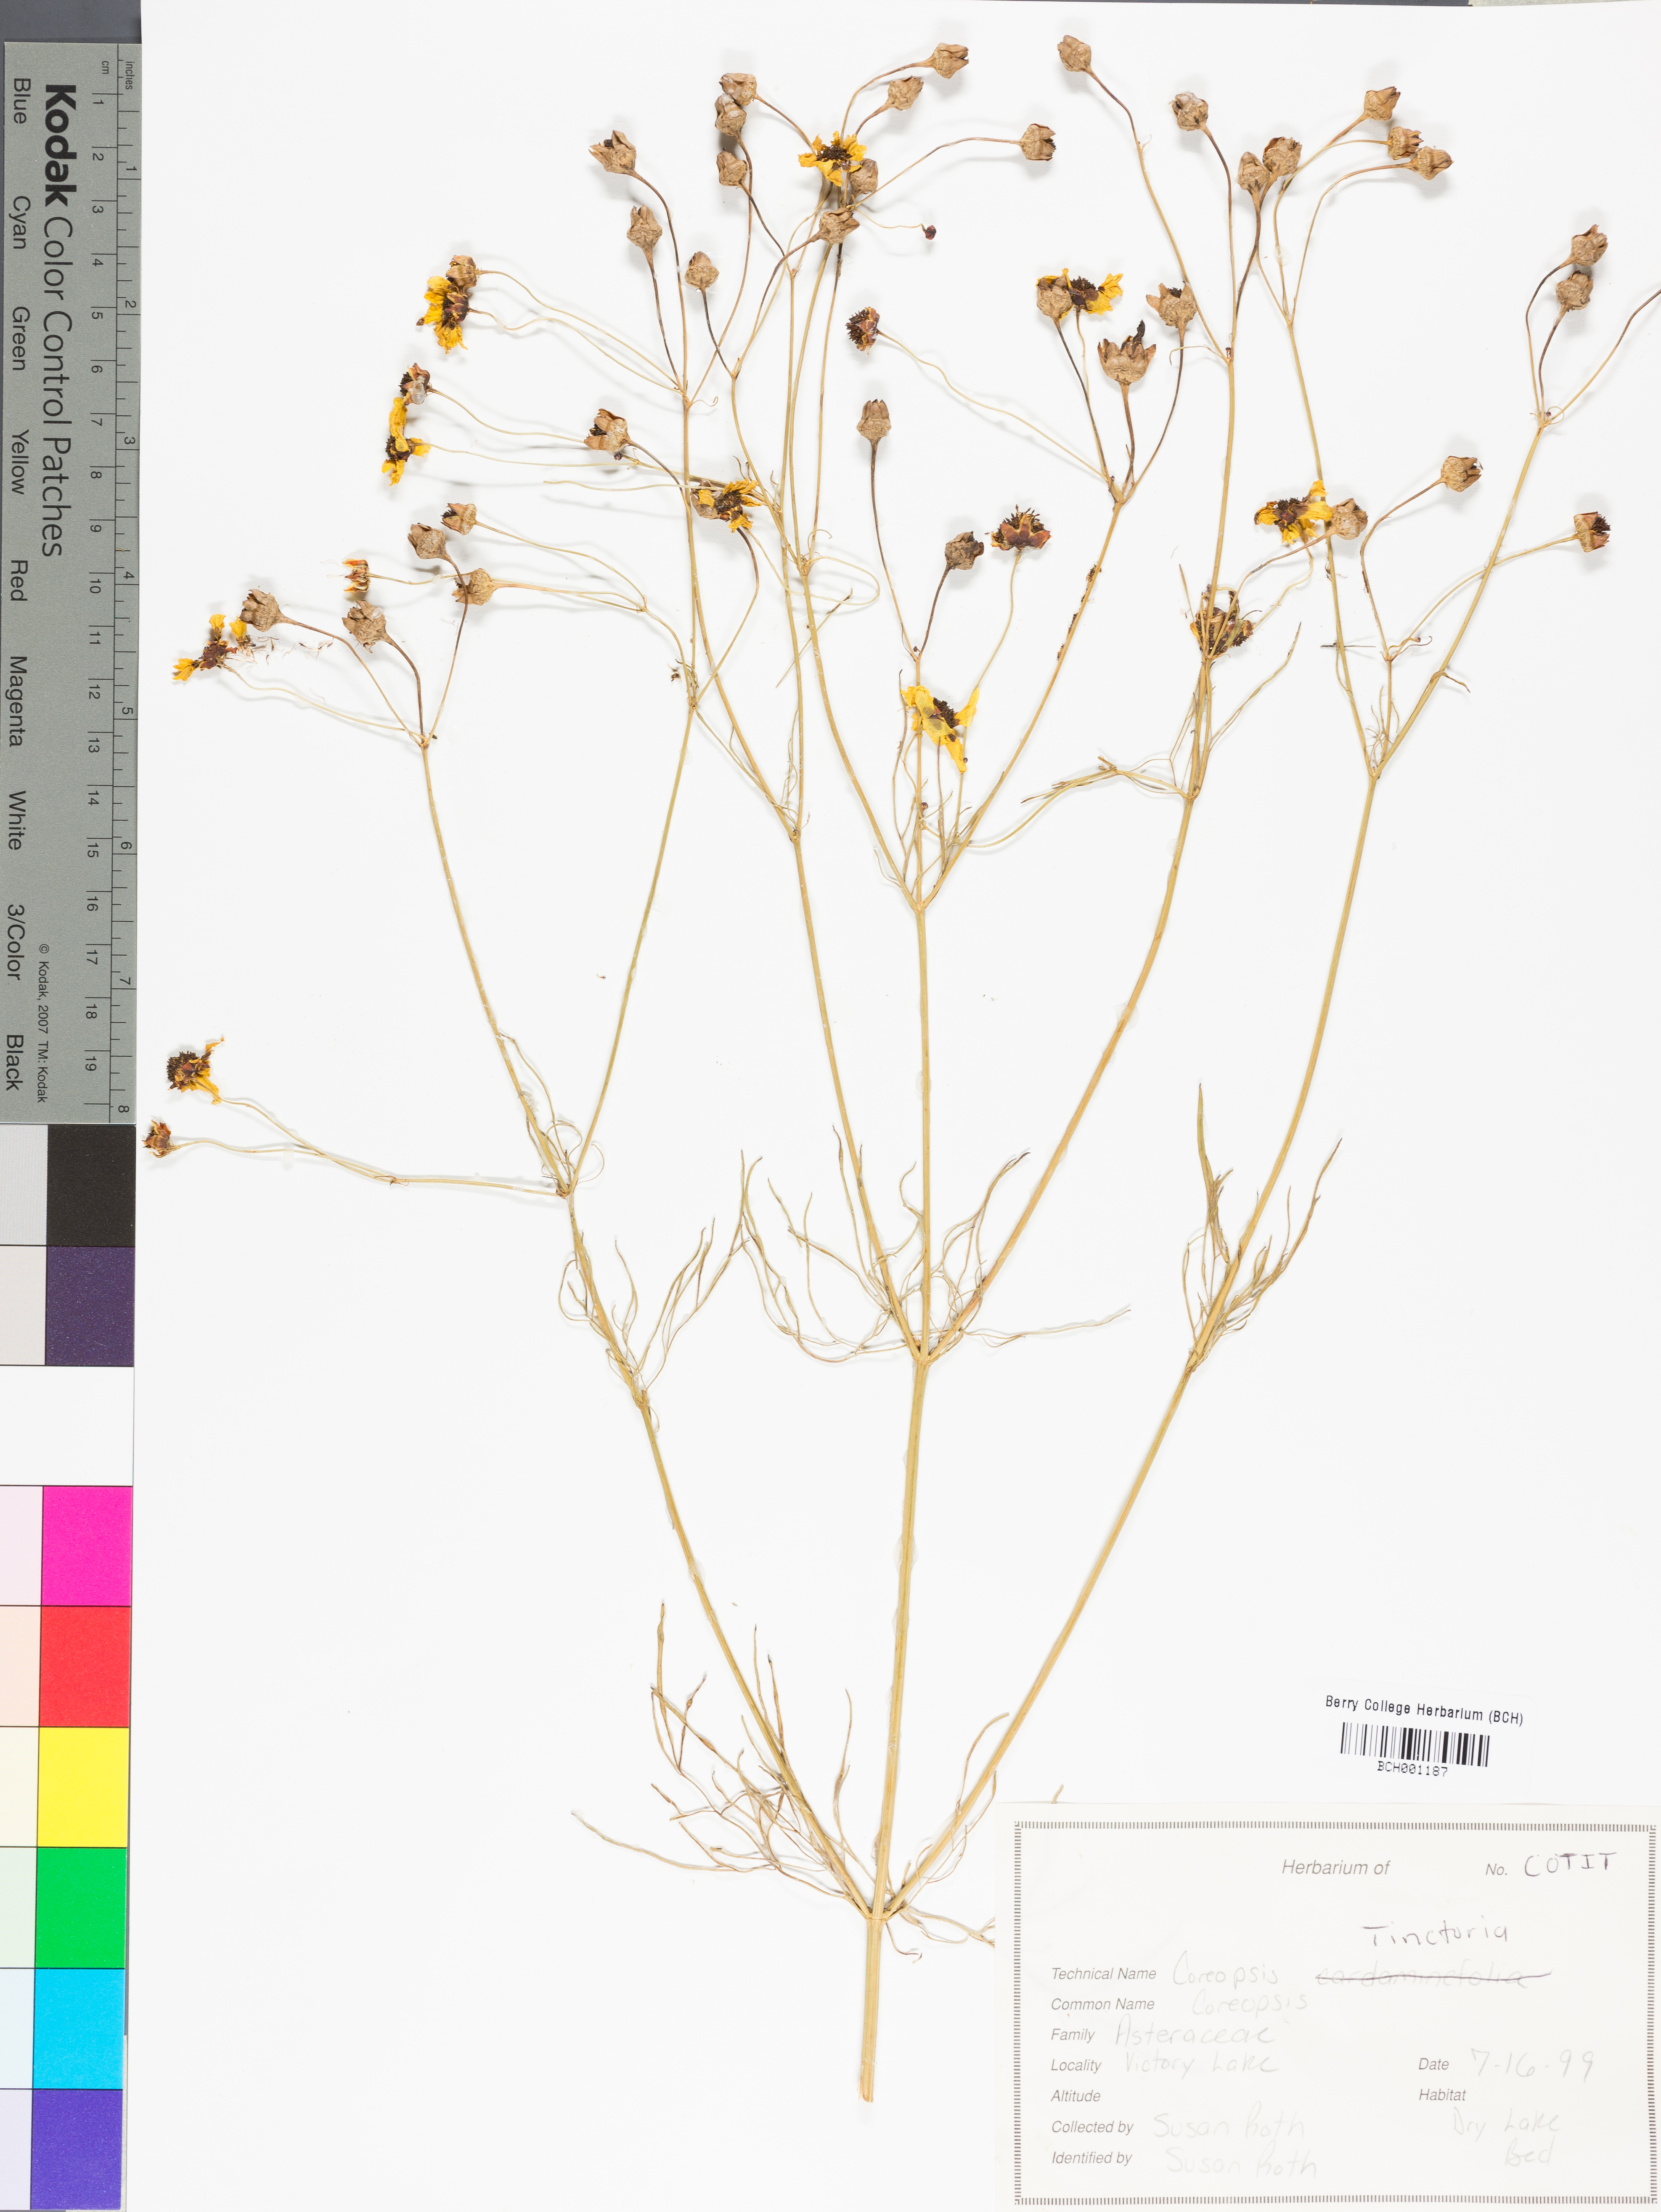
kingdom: Plantae
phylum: Tracheophyta
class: Magnoliopsida
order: Asterales
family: Asteraceae
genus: Coreopsis
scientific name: Coreopsis tinctoria
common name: Garden tickseed
